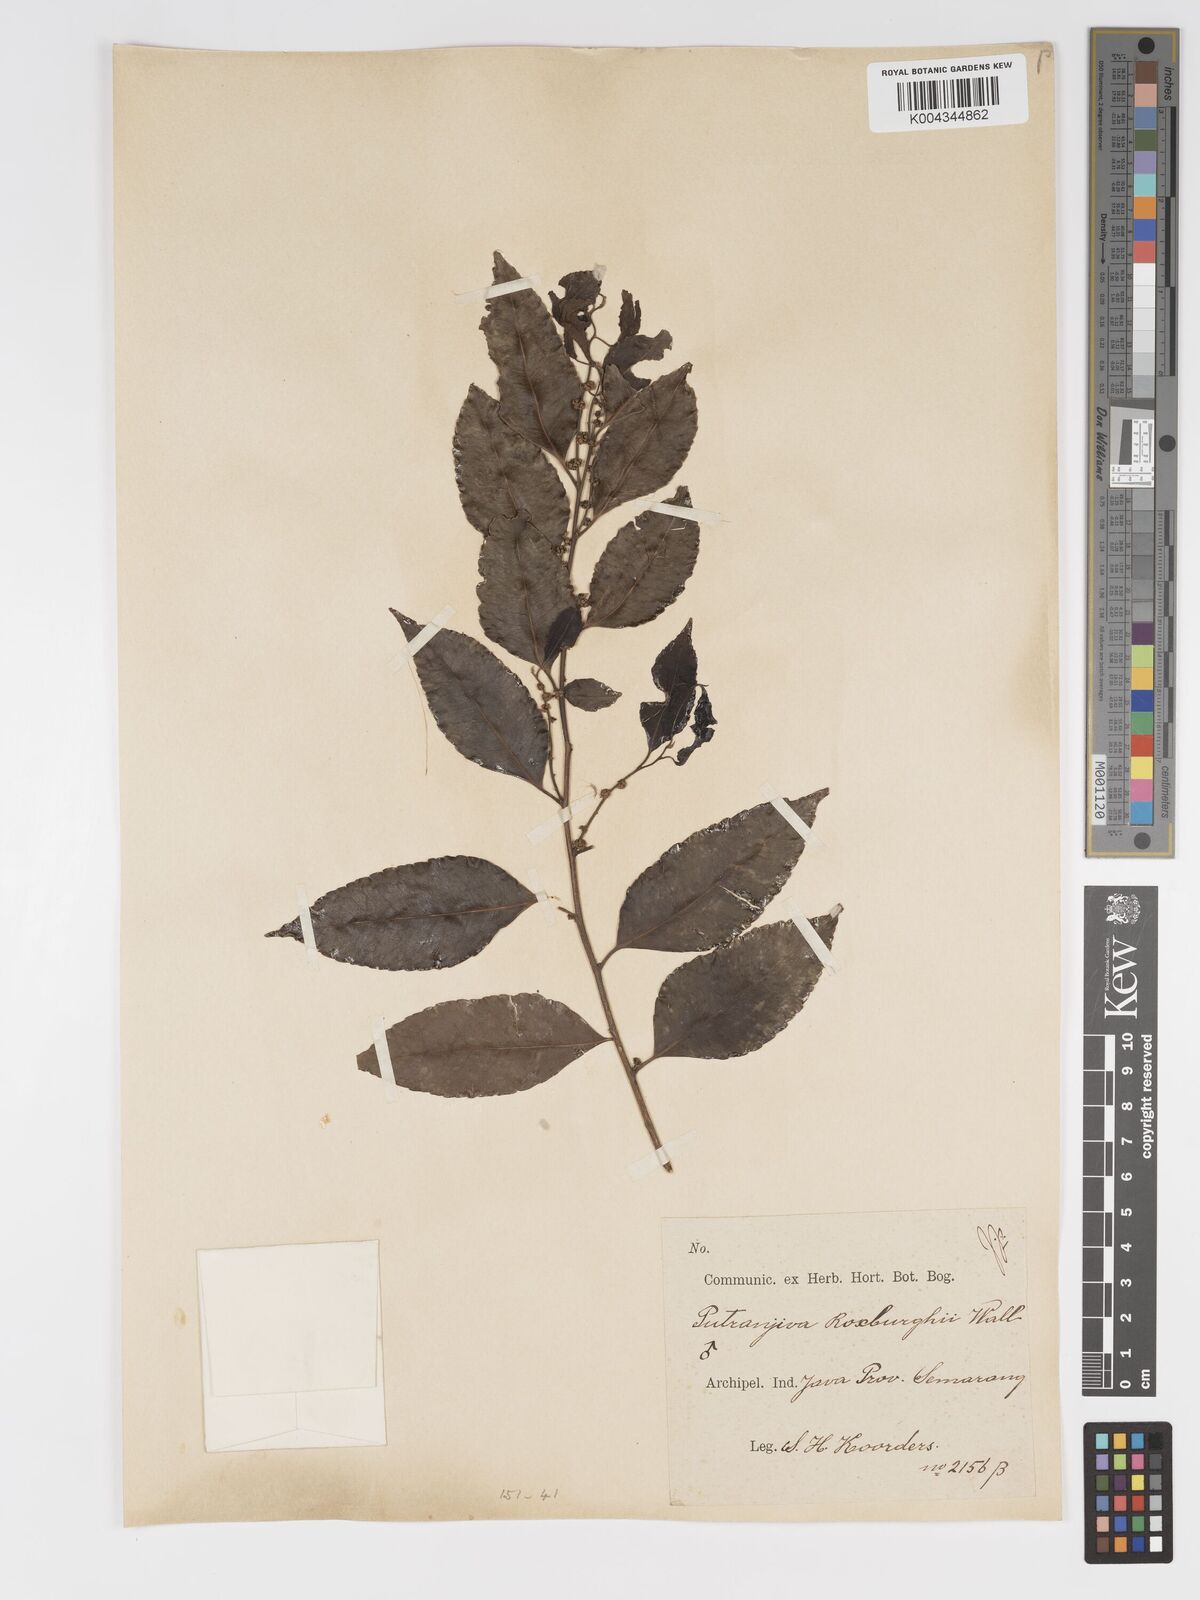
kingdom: Plantae
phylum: Tracheophyta
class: Magnoliopsida
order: Malpighiales
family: Putranjivaceae
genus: Putranjiva
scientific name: Putranjiva roxburghii
